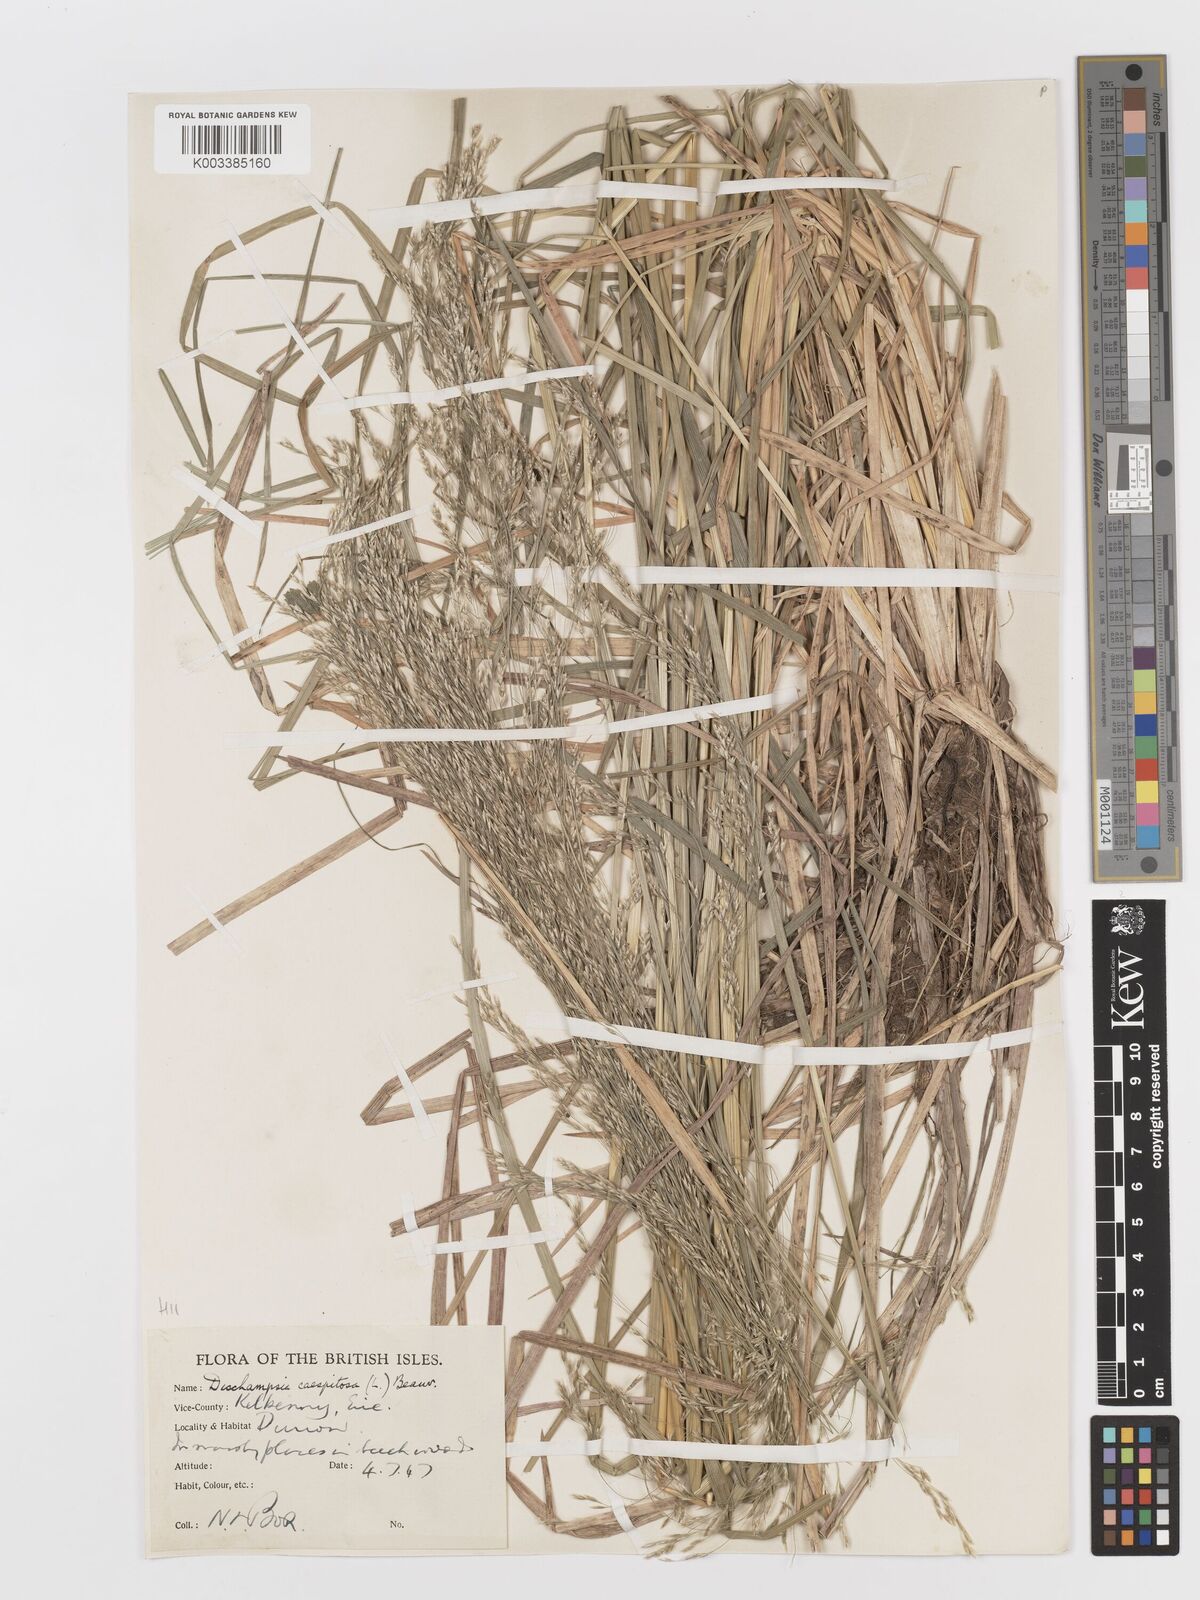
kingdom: Plantae
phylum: Tracheophyta
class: Liliopsida
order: Poales
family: Poaceae
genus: Deschampsia
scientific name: Deschampsia cespitosa
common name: Tufted hair-grass
